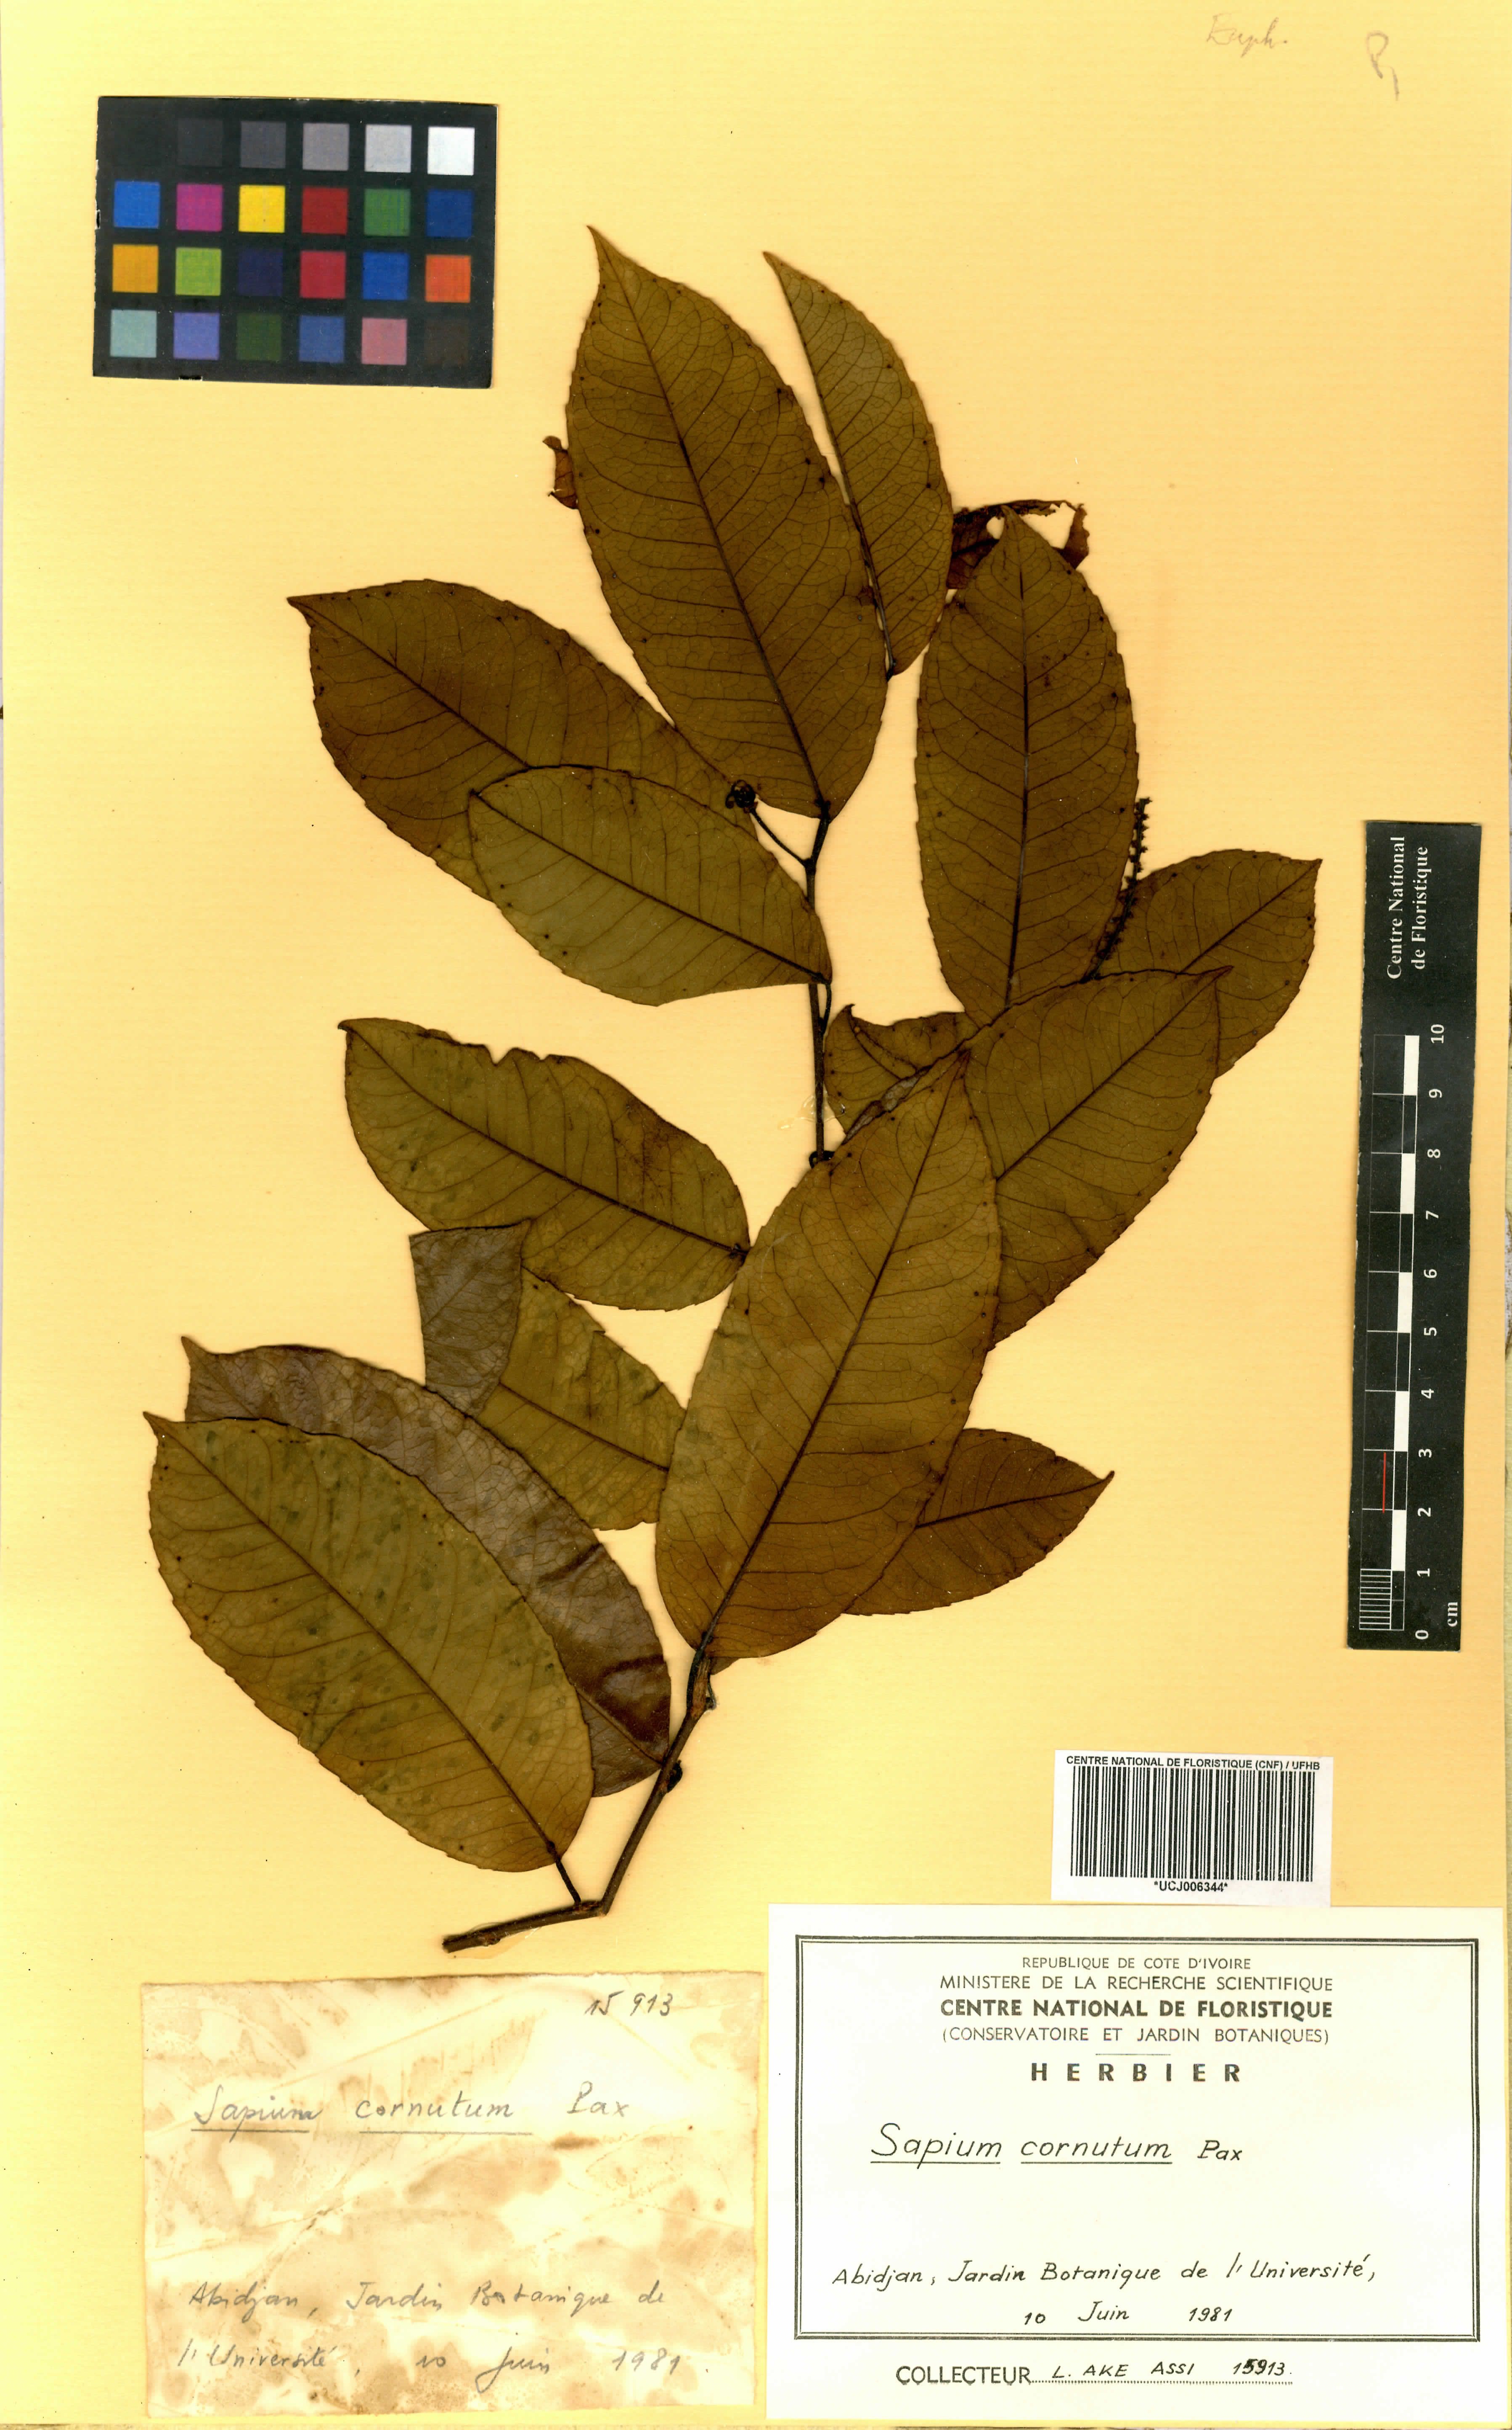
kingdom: Plantae
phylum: Tracheophyta
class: Magnoliopsida
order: Malpighiales
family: Euphorbiaceae
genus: Sclerocroton
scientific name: Sclerocroton cornutus
